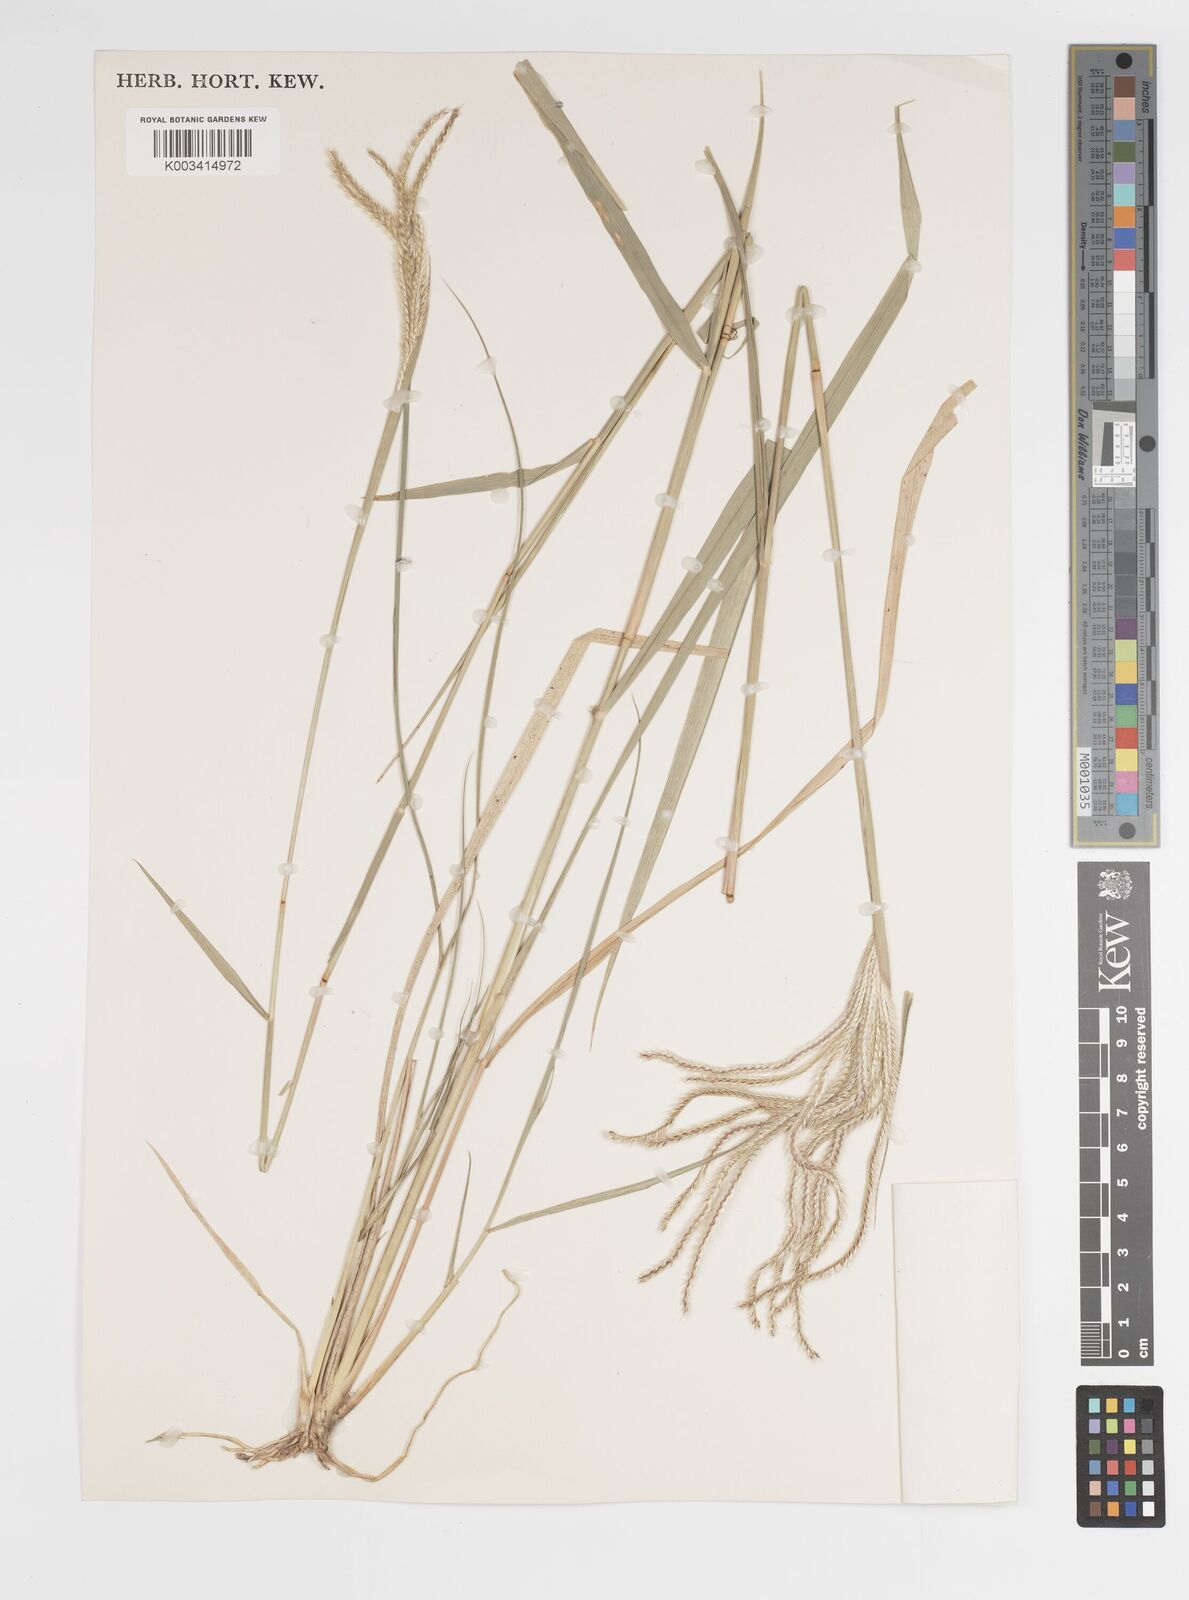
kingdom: Plantae
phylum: Tracheophyta
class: Liliopsida
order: Poales
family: Poaceae
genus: Stapfochloa
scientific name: Stapfochloa elata
